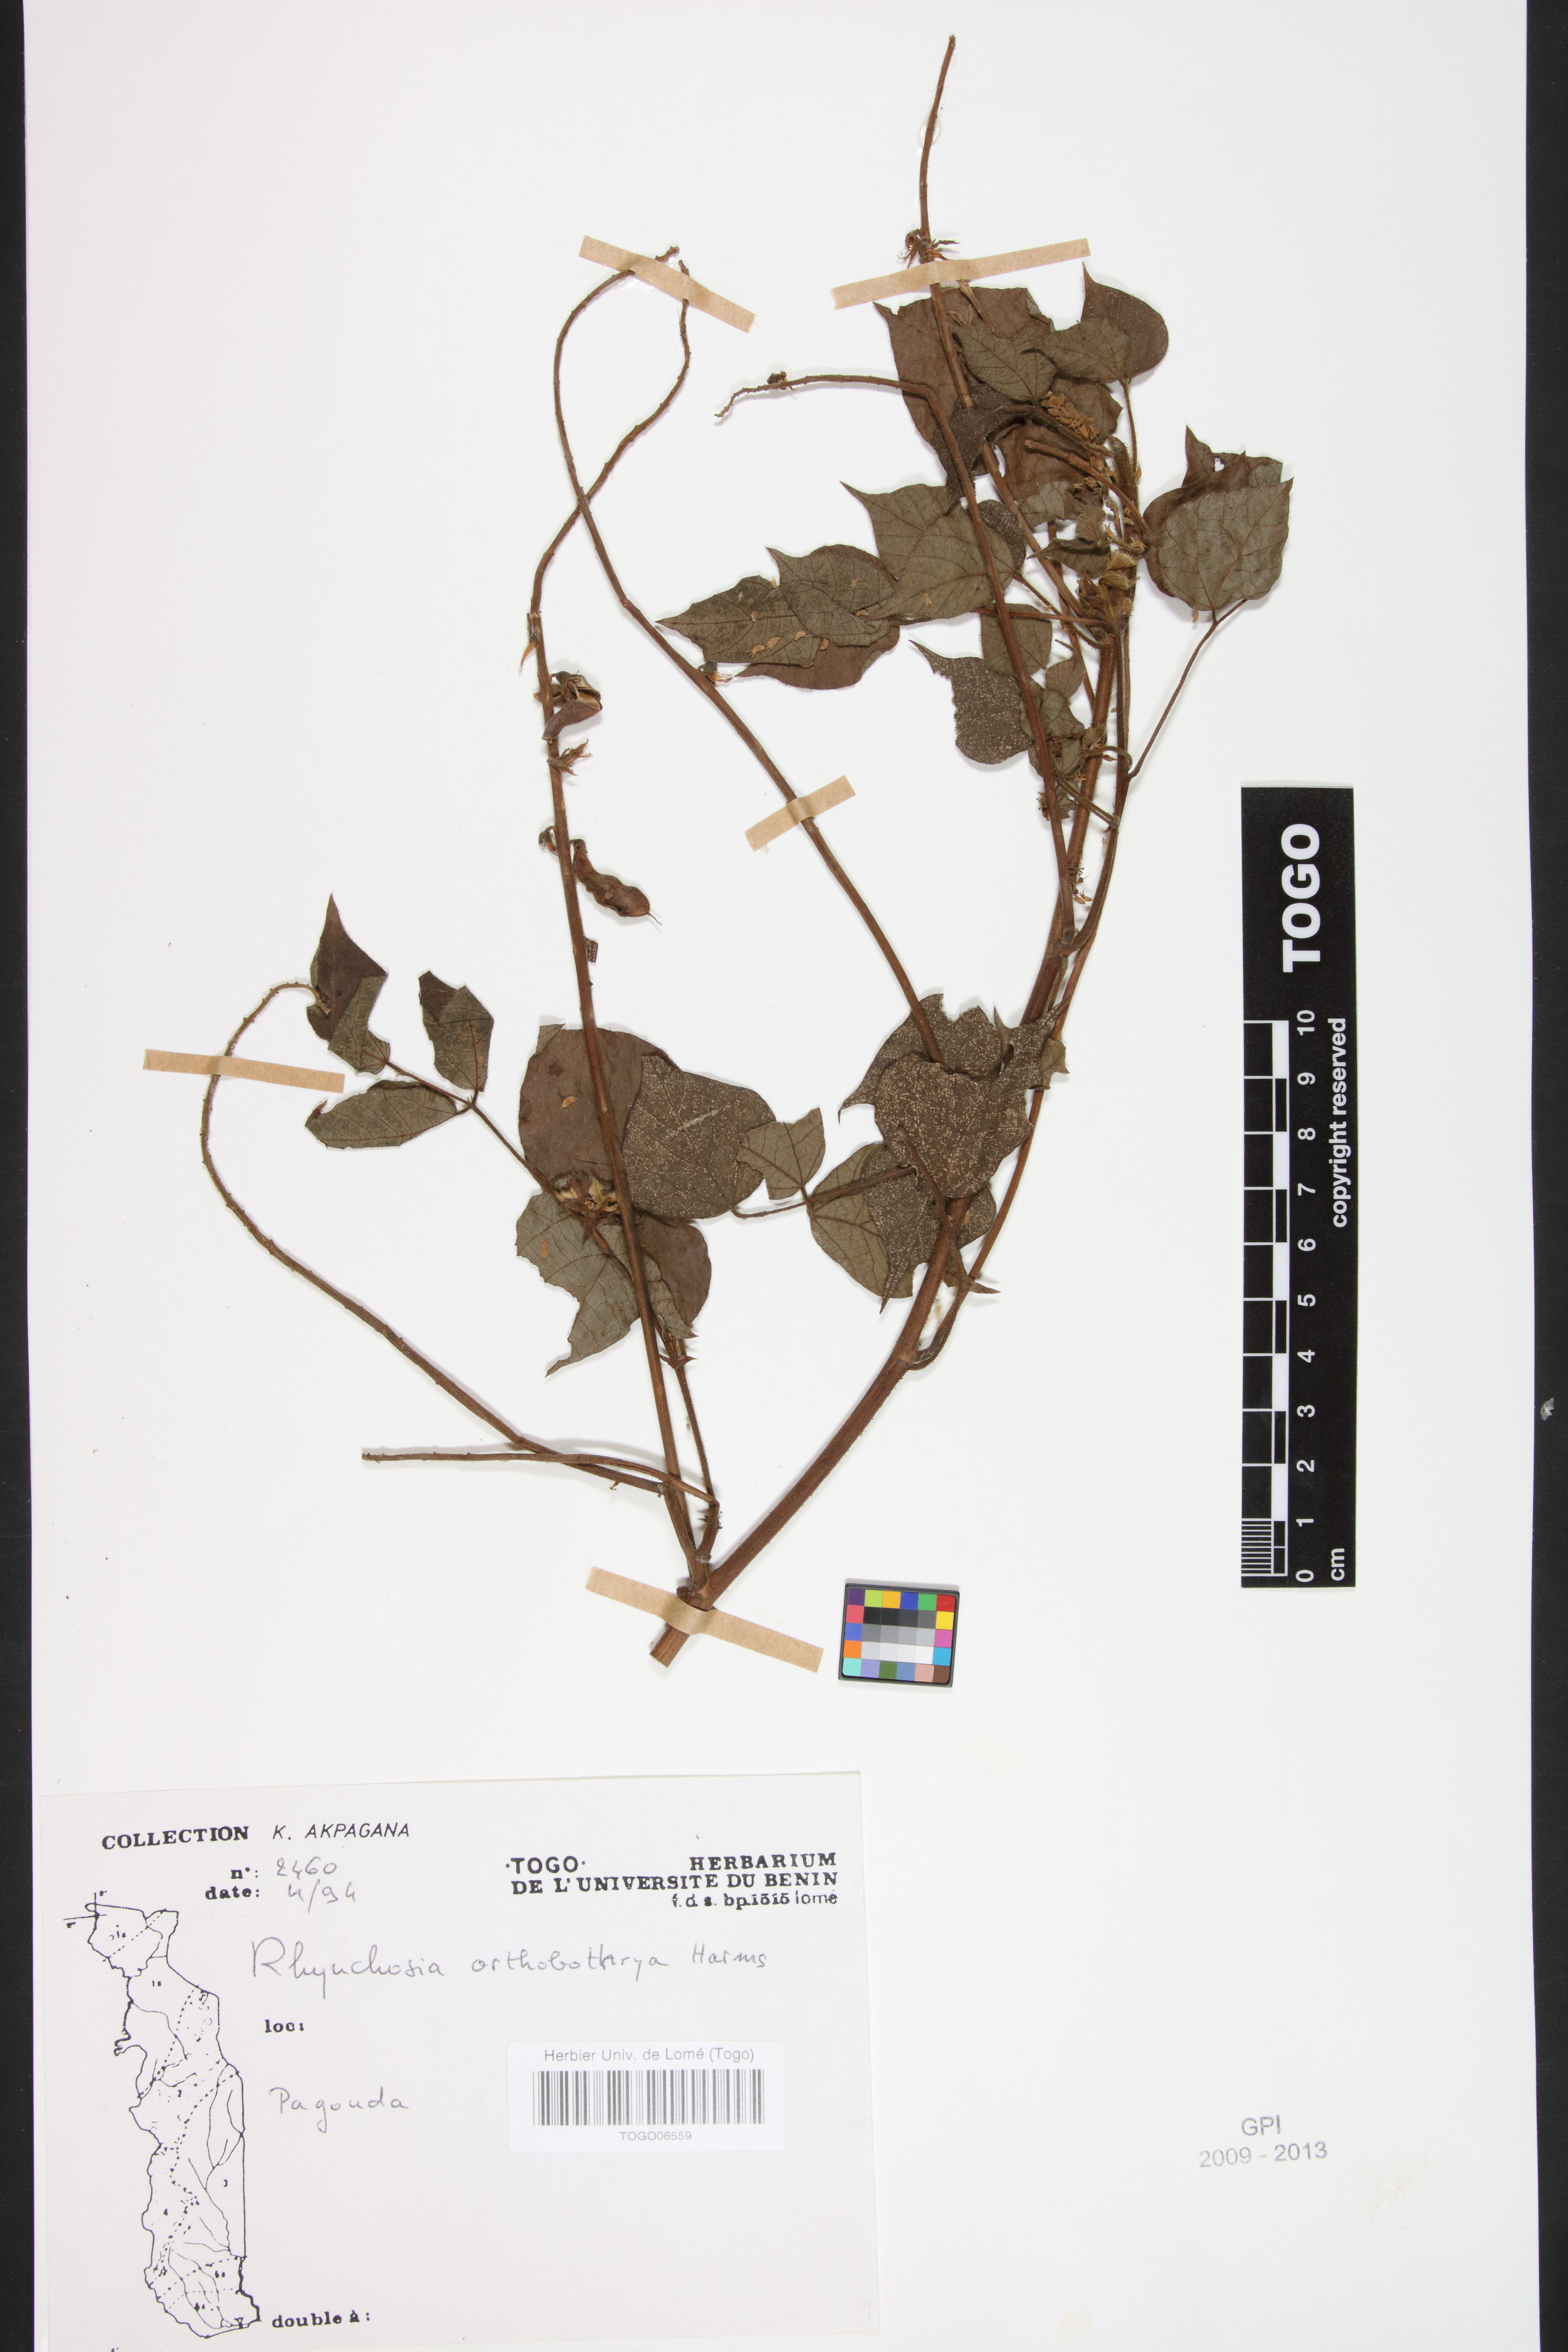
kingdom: Plantae
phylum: Tracheophyta
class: Magnoliopsida
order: Fabales
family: Fabaceae
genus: Rhynchosia
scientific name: Rhynchosia orthobotrya
